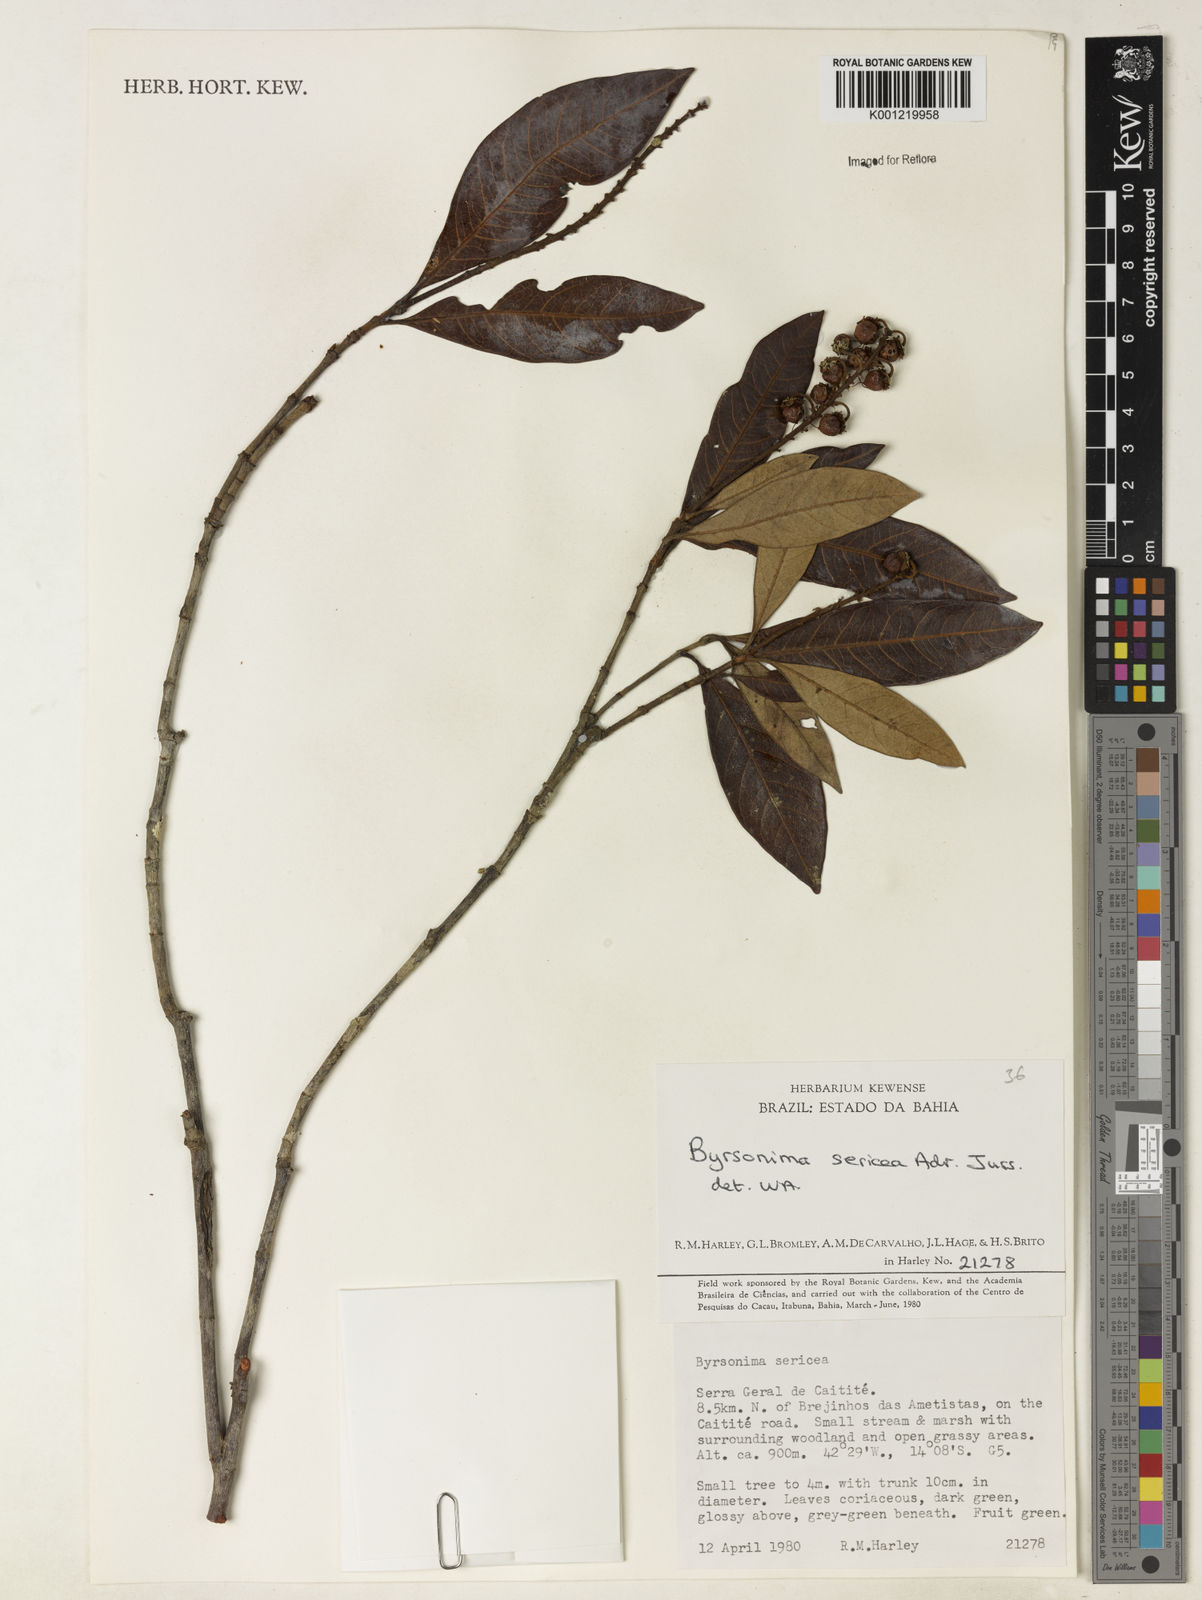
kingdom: Plantae
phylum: Tracheophyta
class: Magnoliopsida
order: Malpighiales
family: Malpighiaceae
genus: Byrsonima
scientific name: Byrsonima sericea
